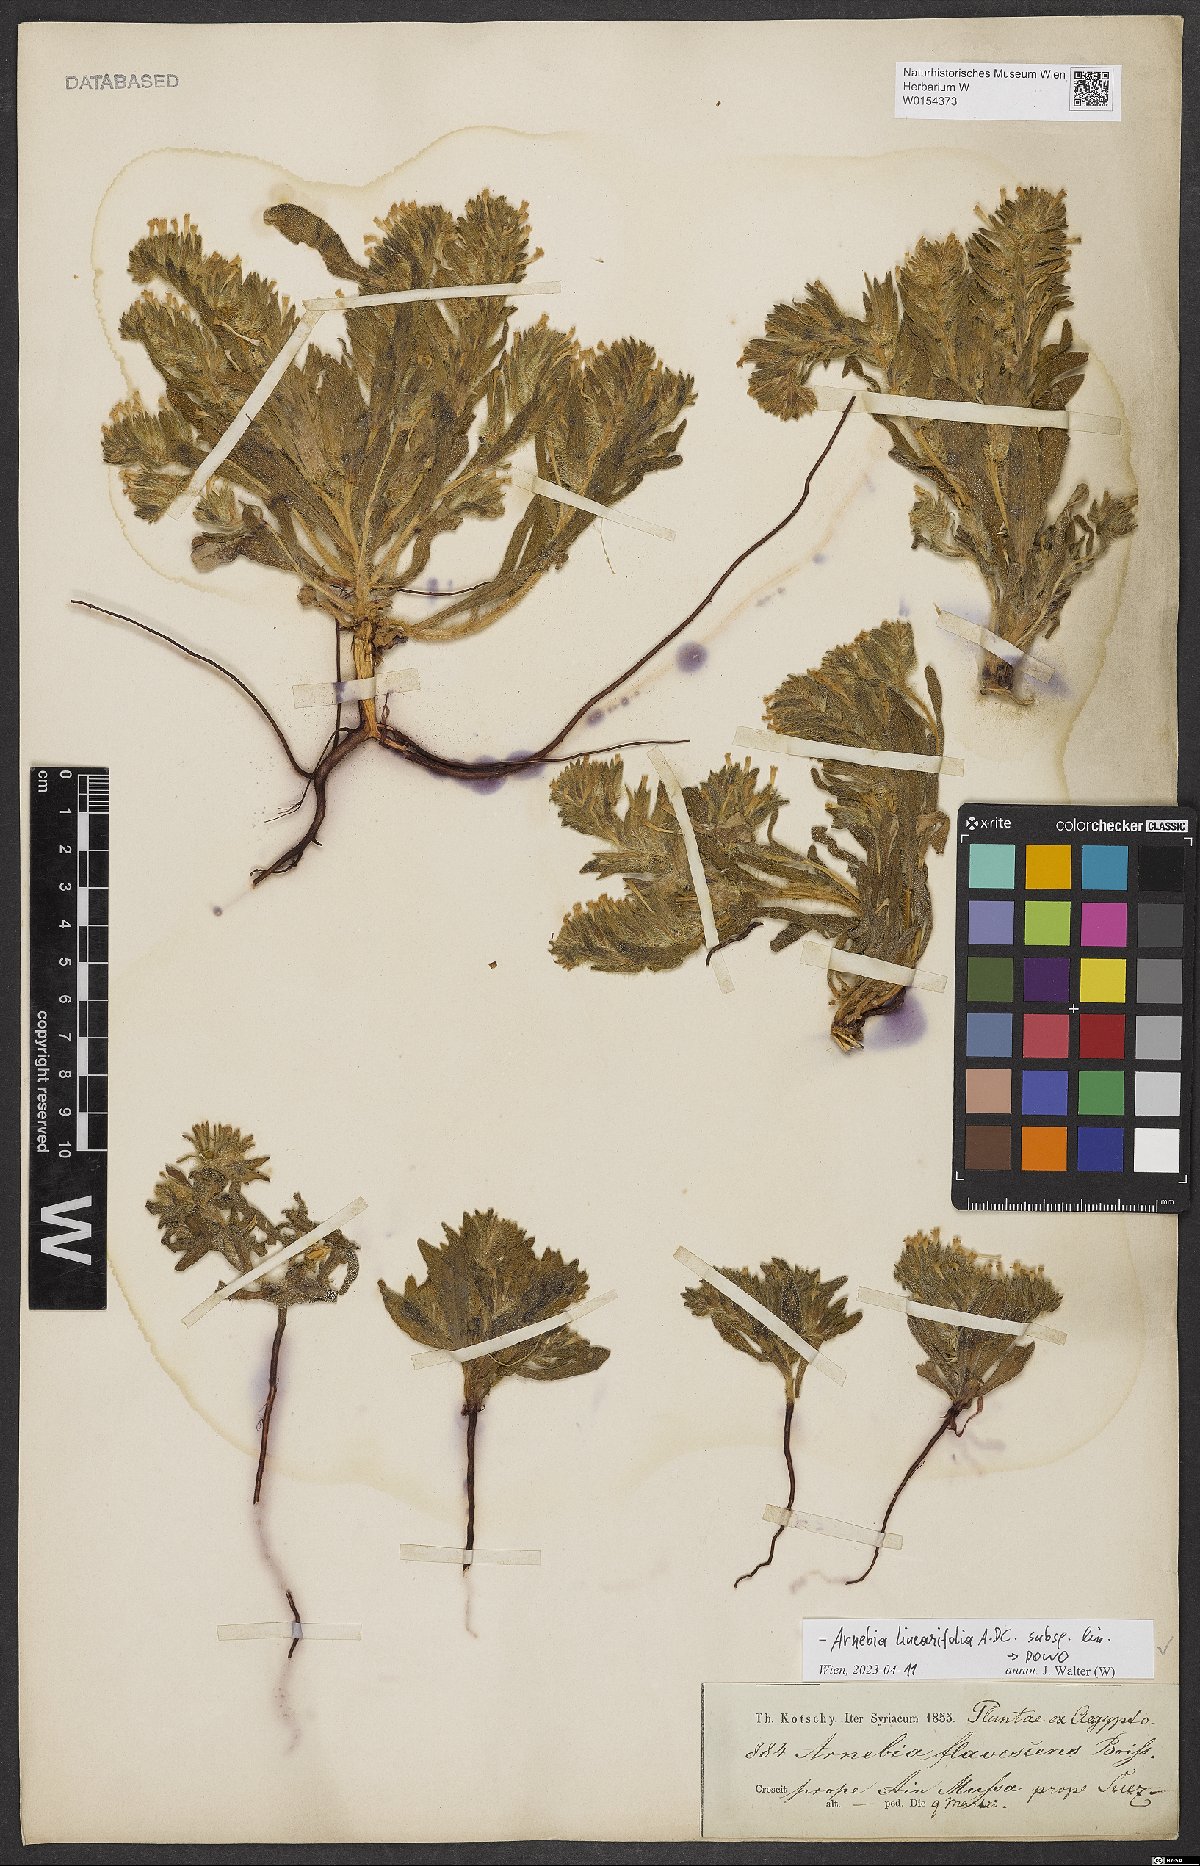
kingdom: Plantae
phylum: Tracheophyta
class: Magnoliopsida
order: Boraginales
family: Boraginaceae
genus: Arnebia
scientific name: Arnebia linearifolia
